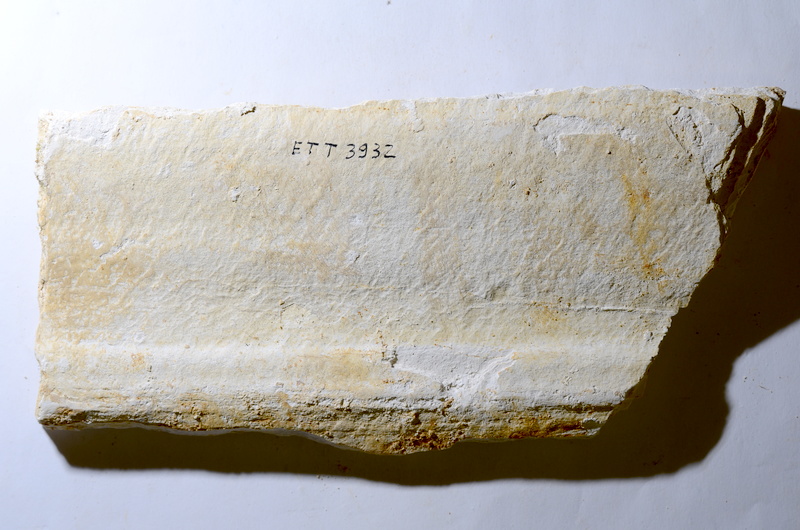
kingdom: Animalia
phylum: Chordata
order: Salmoniformes
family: Orthogonikleithridae
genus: Orthogonikleithrus
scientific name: Orthogonikleithrus hoelli
